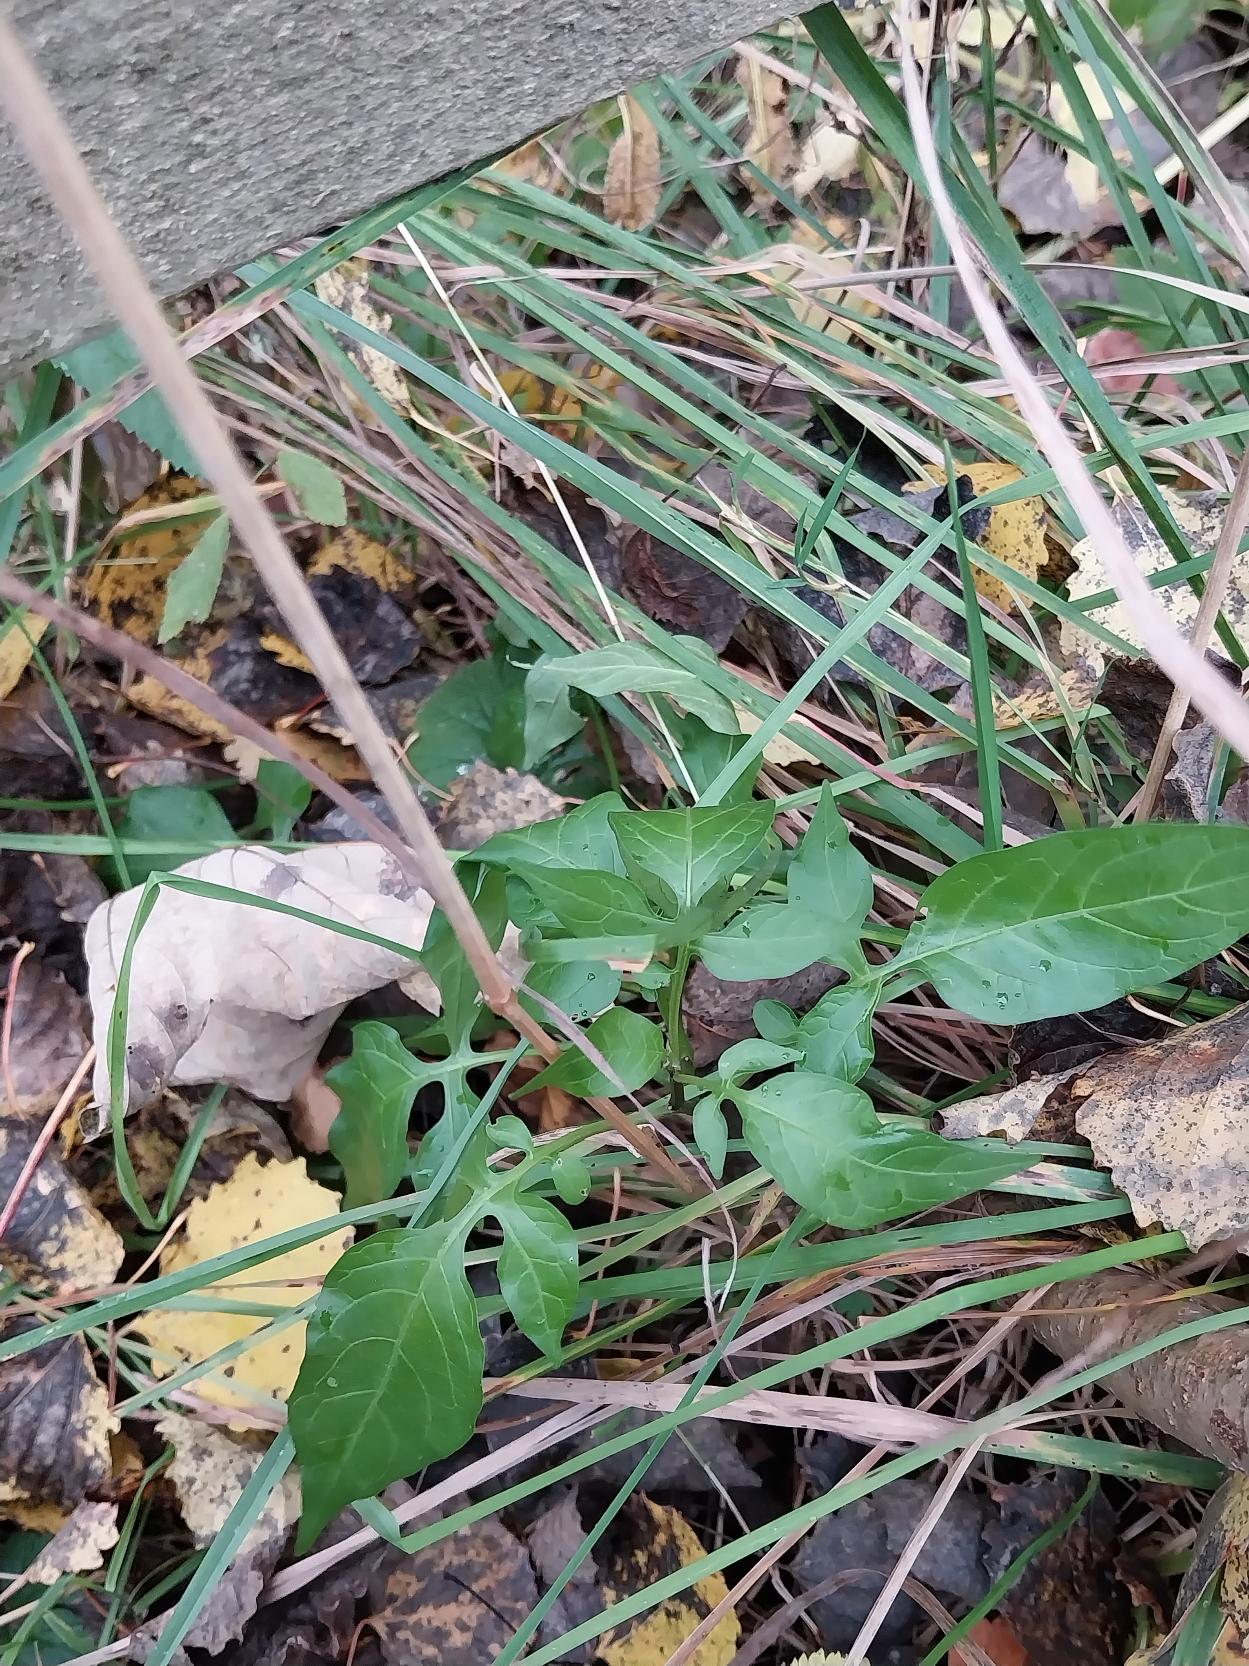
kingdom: Plantae
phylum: Tracheophyta
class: Magnoliopsida
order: Solanales
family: Solanaceae
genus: Solanum
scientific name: Solanum dulcamara
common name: Bittersød natskygge
